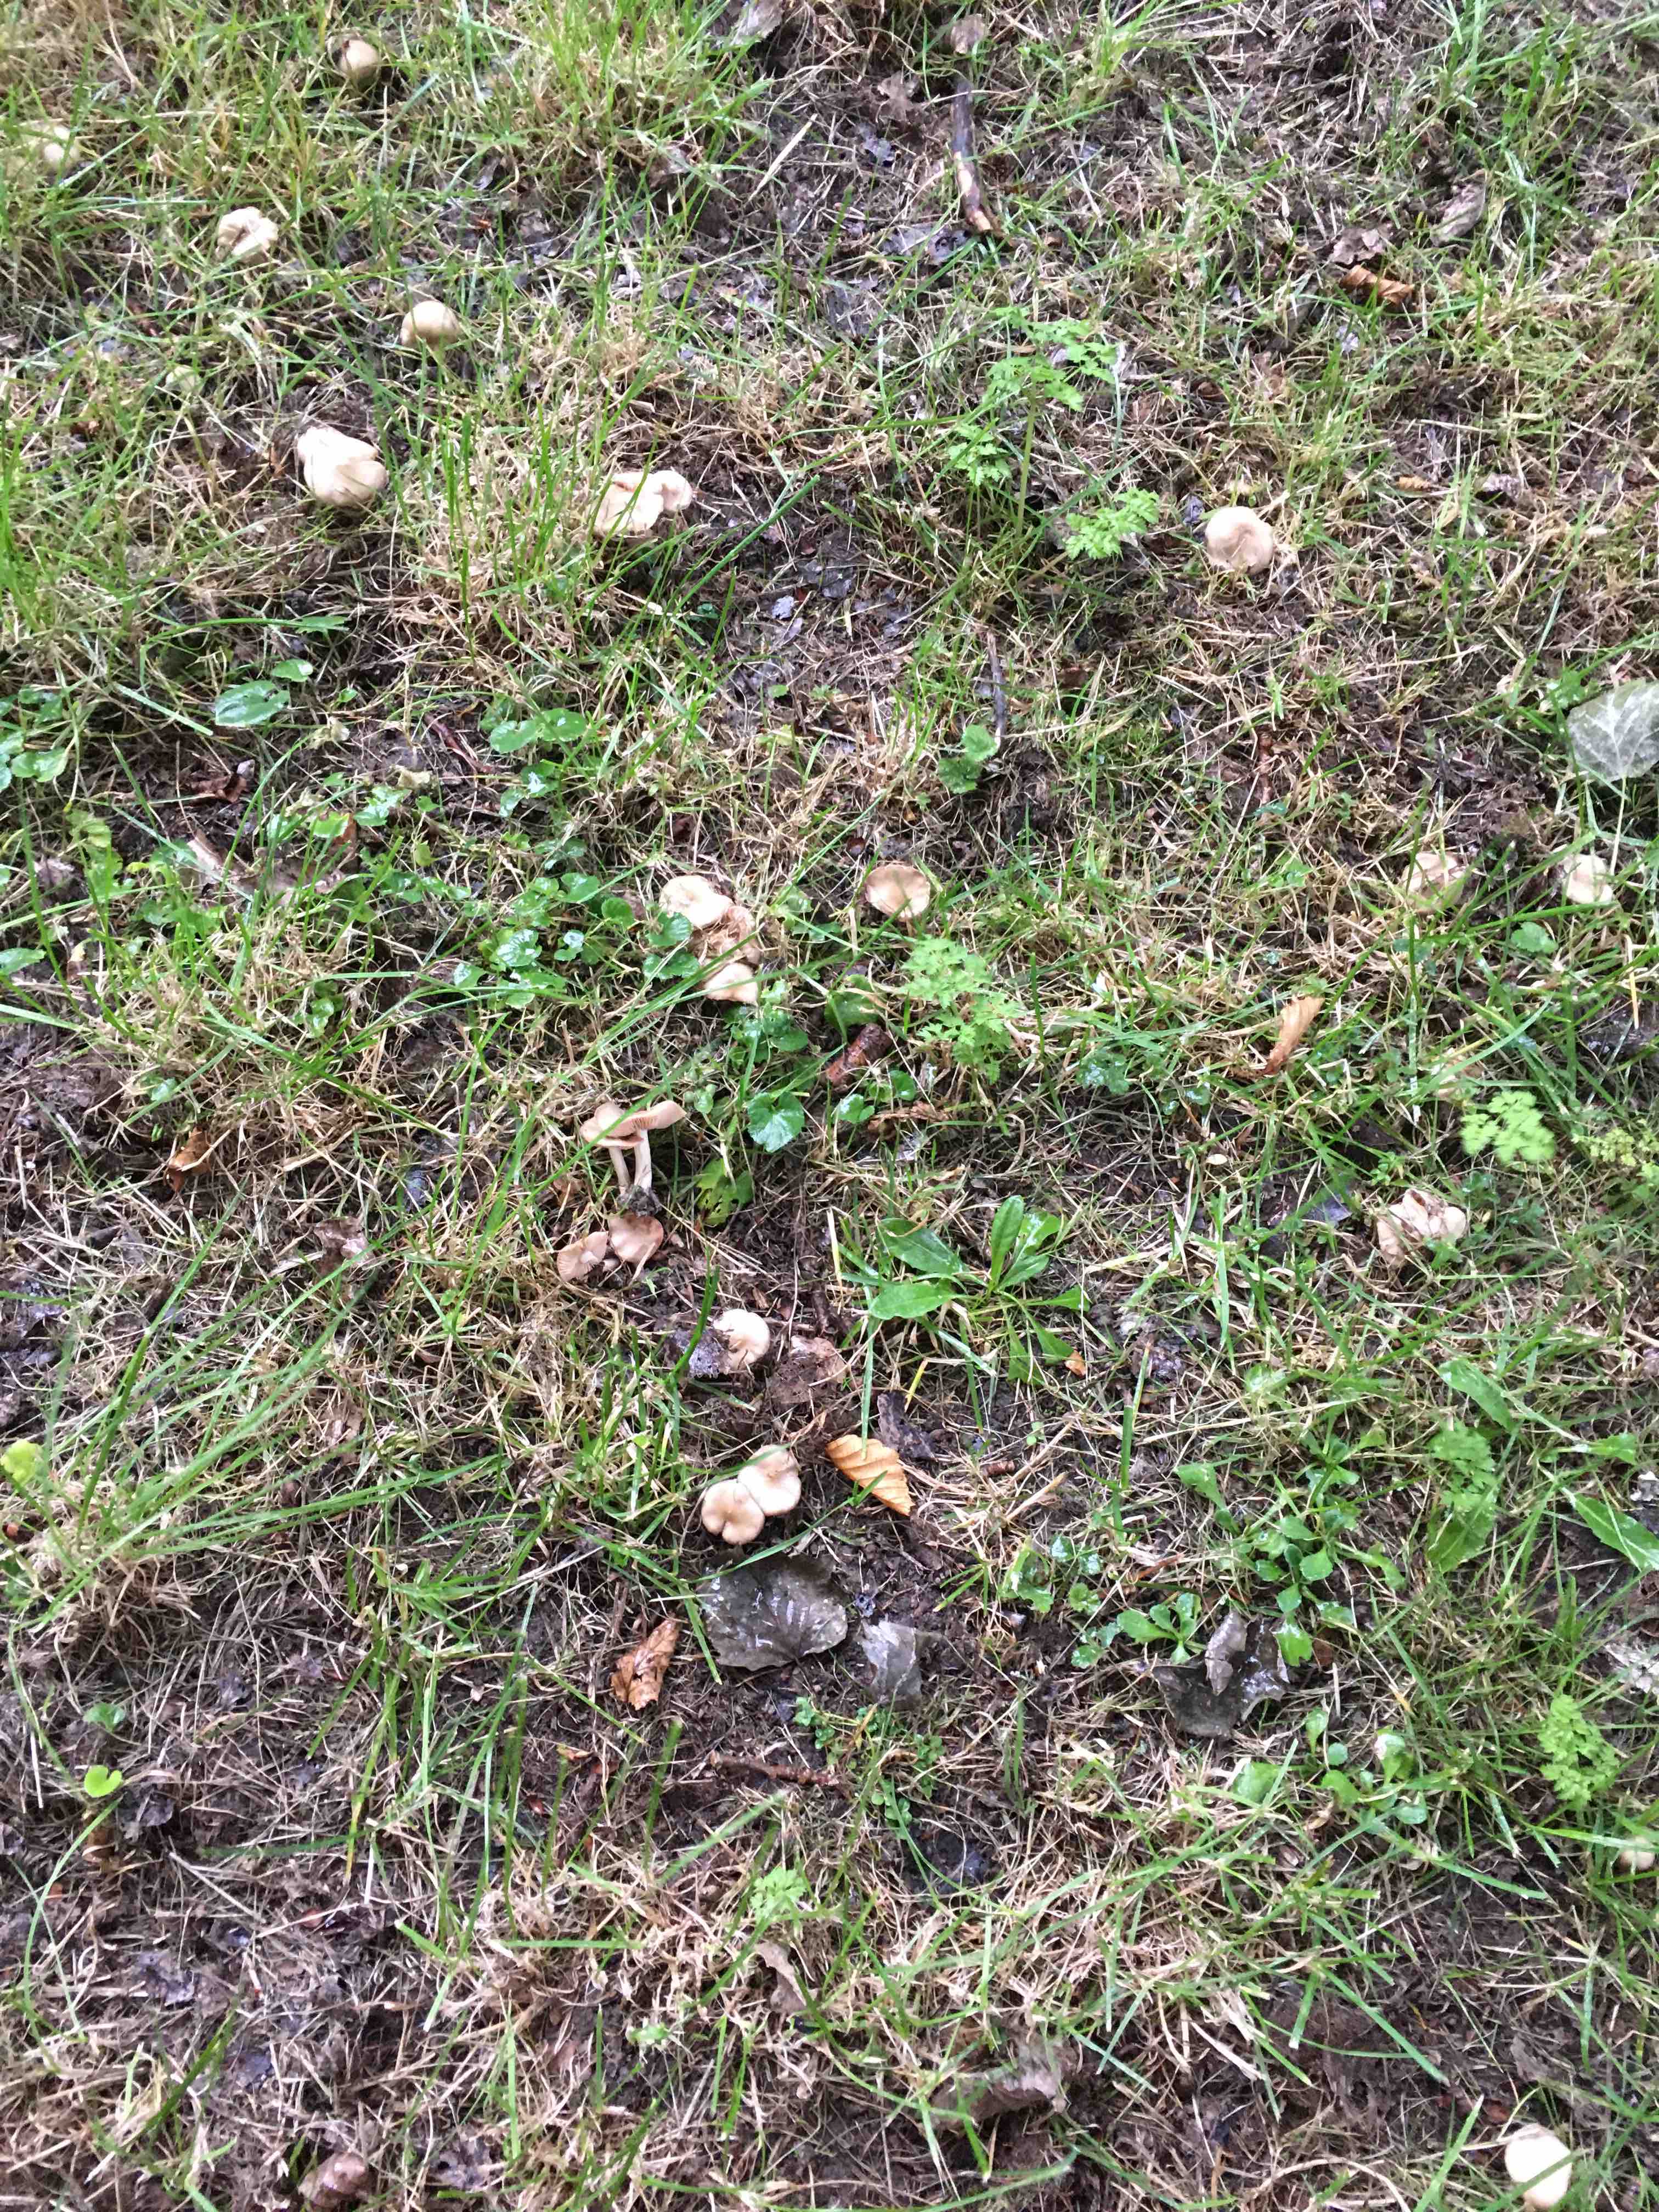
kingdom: Fungi
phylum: Basidiomycota
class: Agaricomycetes
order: Agaricales
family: Entolomataceae
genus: Entoloma
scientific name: Entoloma
